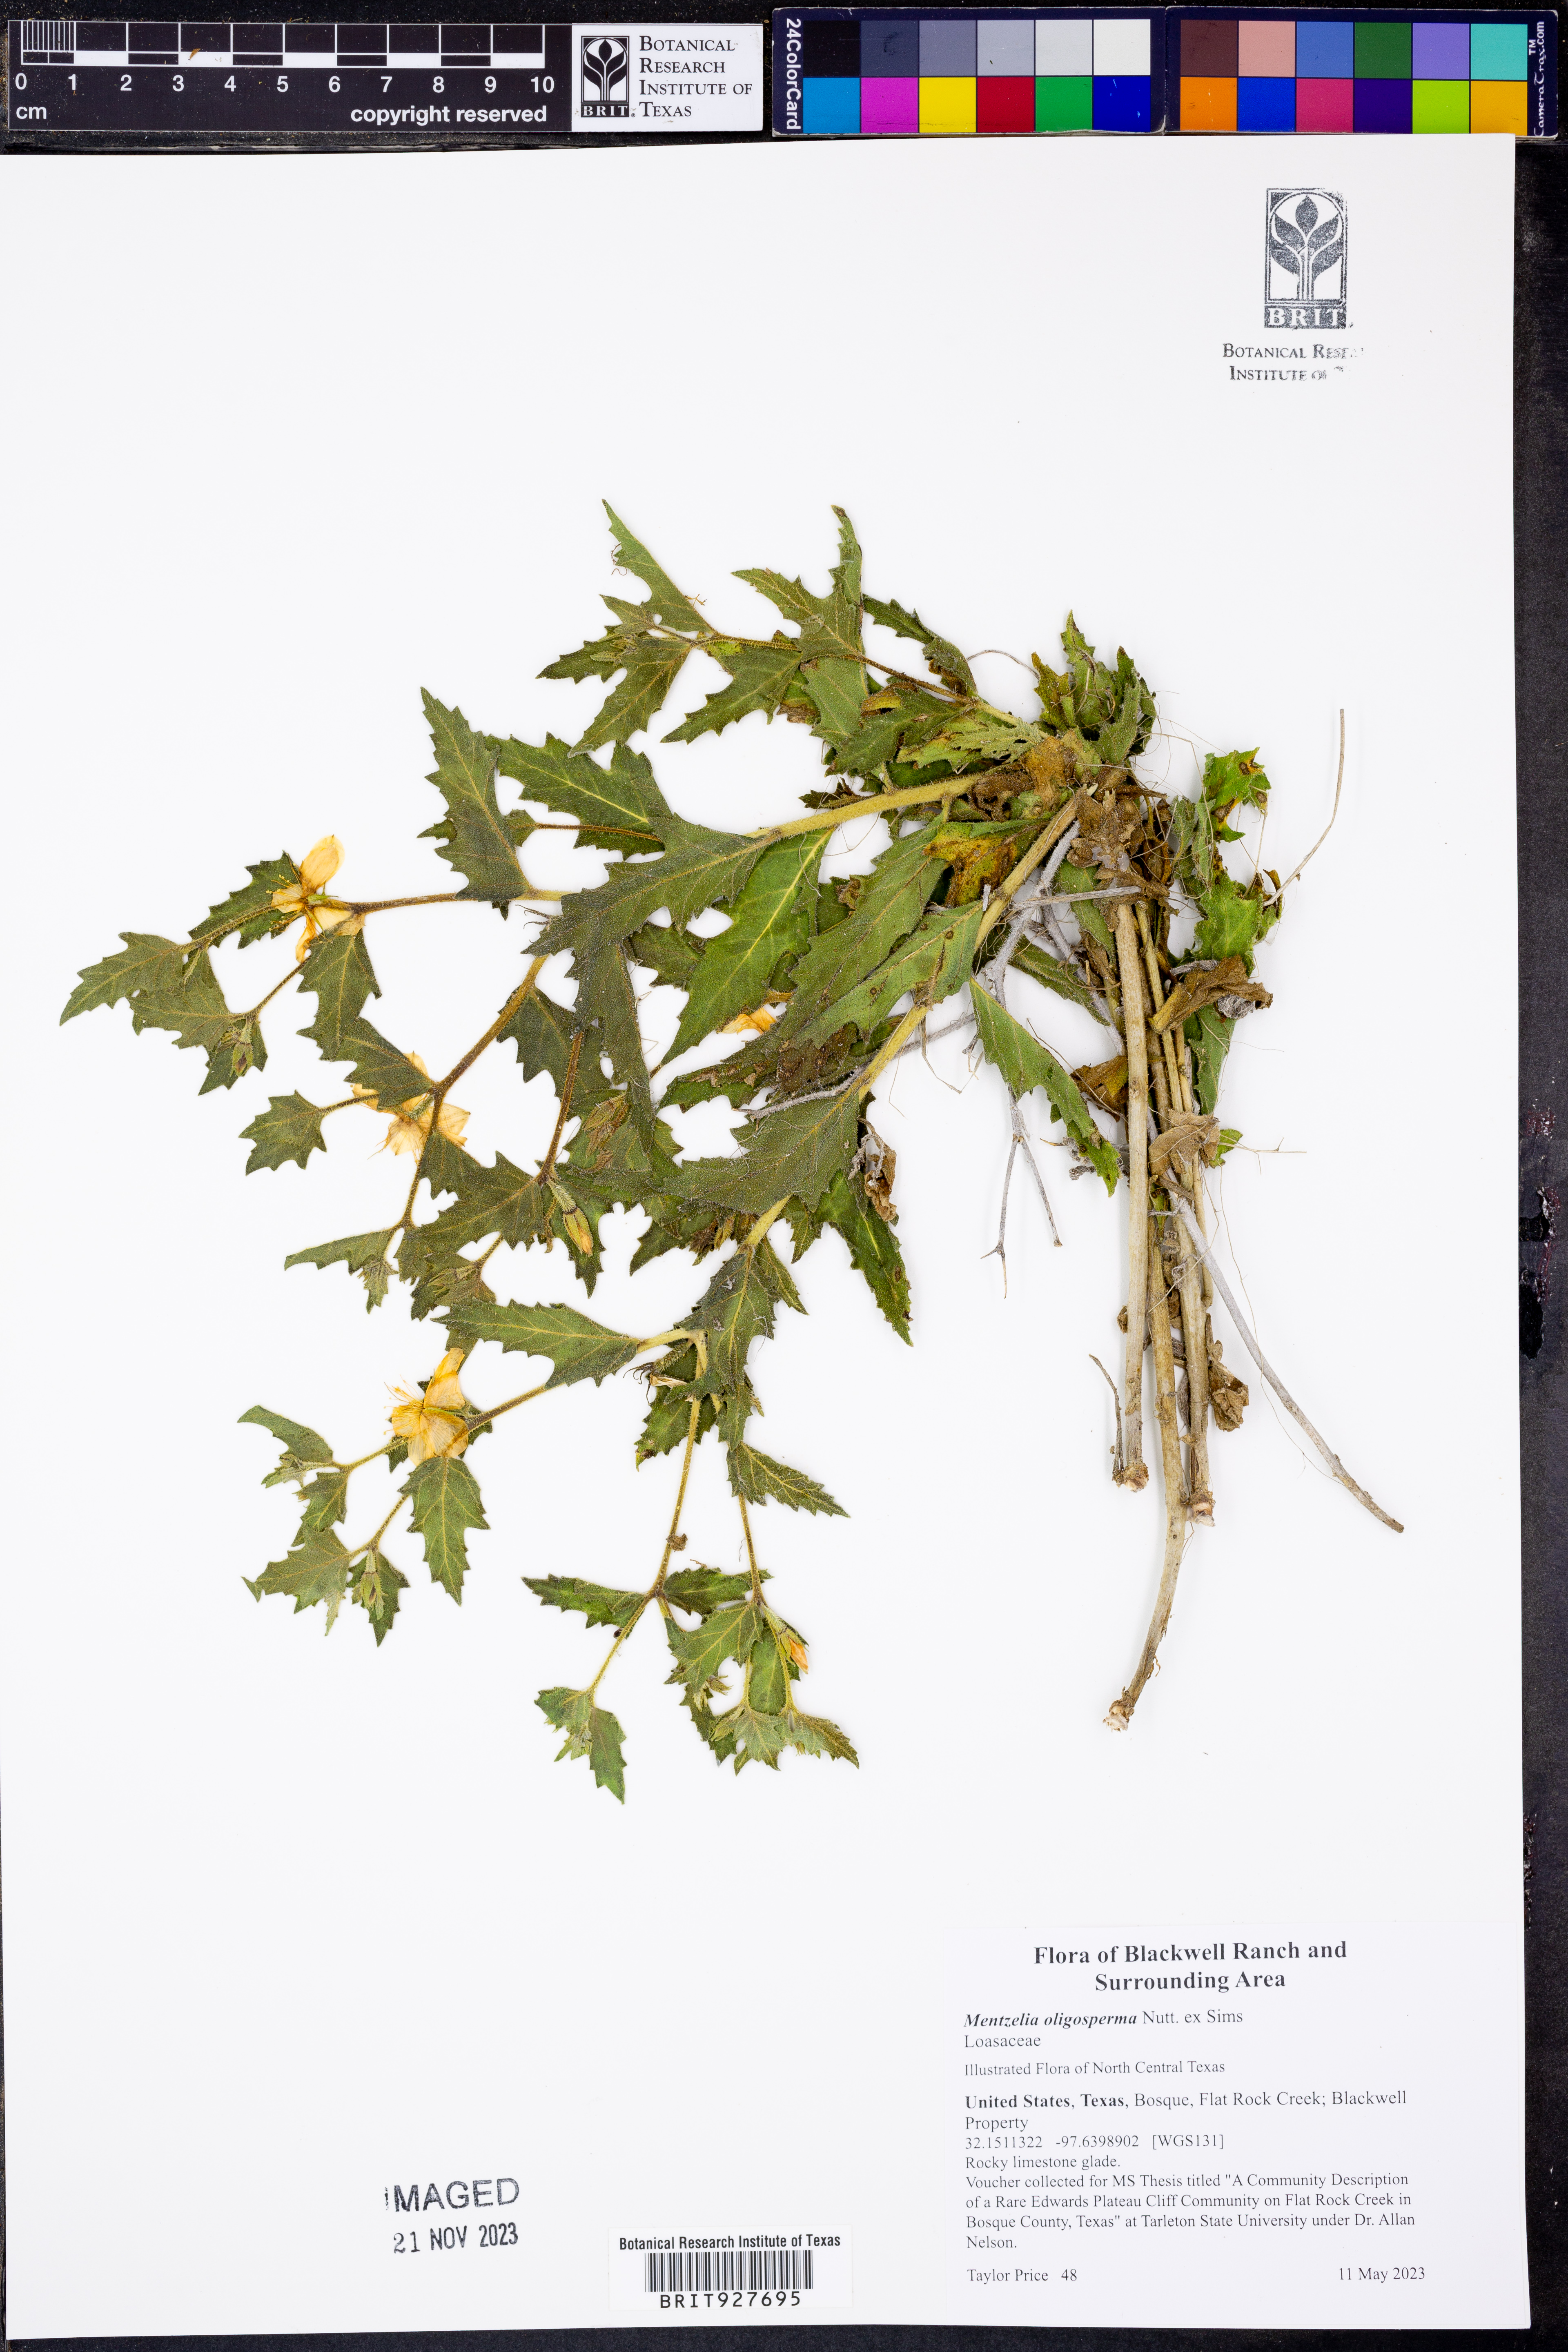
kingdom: Plantae
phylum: Tracheophyta
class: Magnoliopsida
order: Cornales
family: Loasaceae
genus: Mentzelia
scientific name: Mentzelia oligosperma
